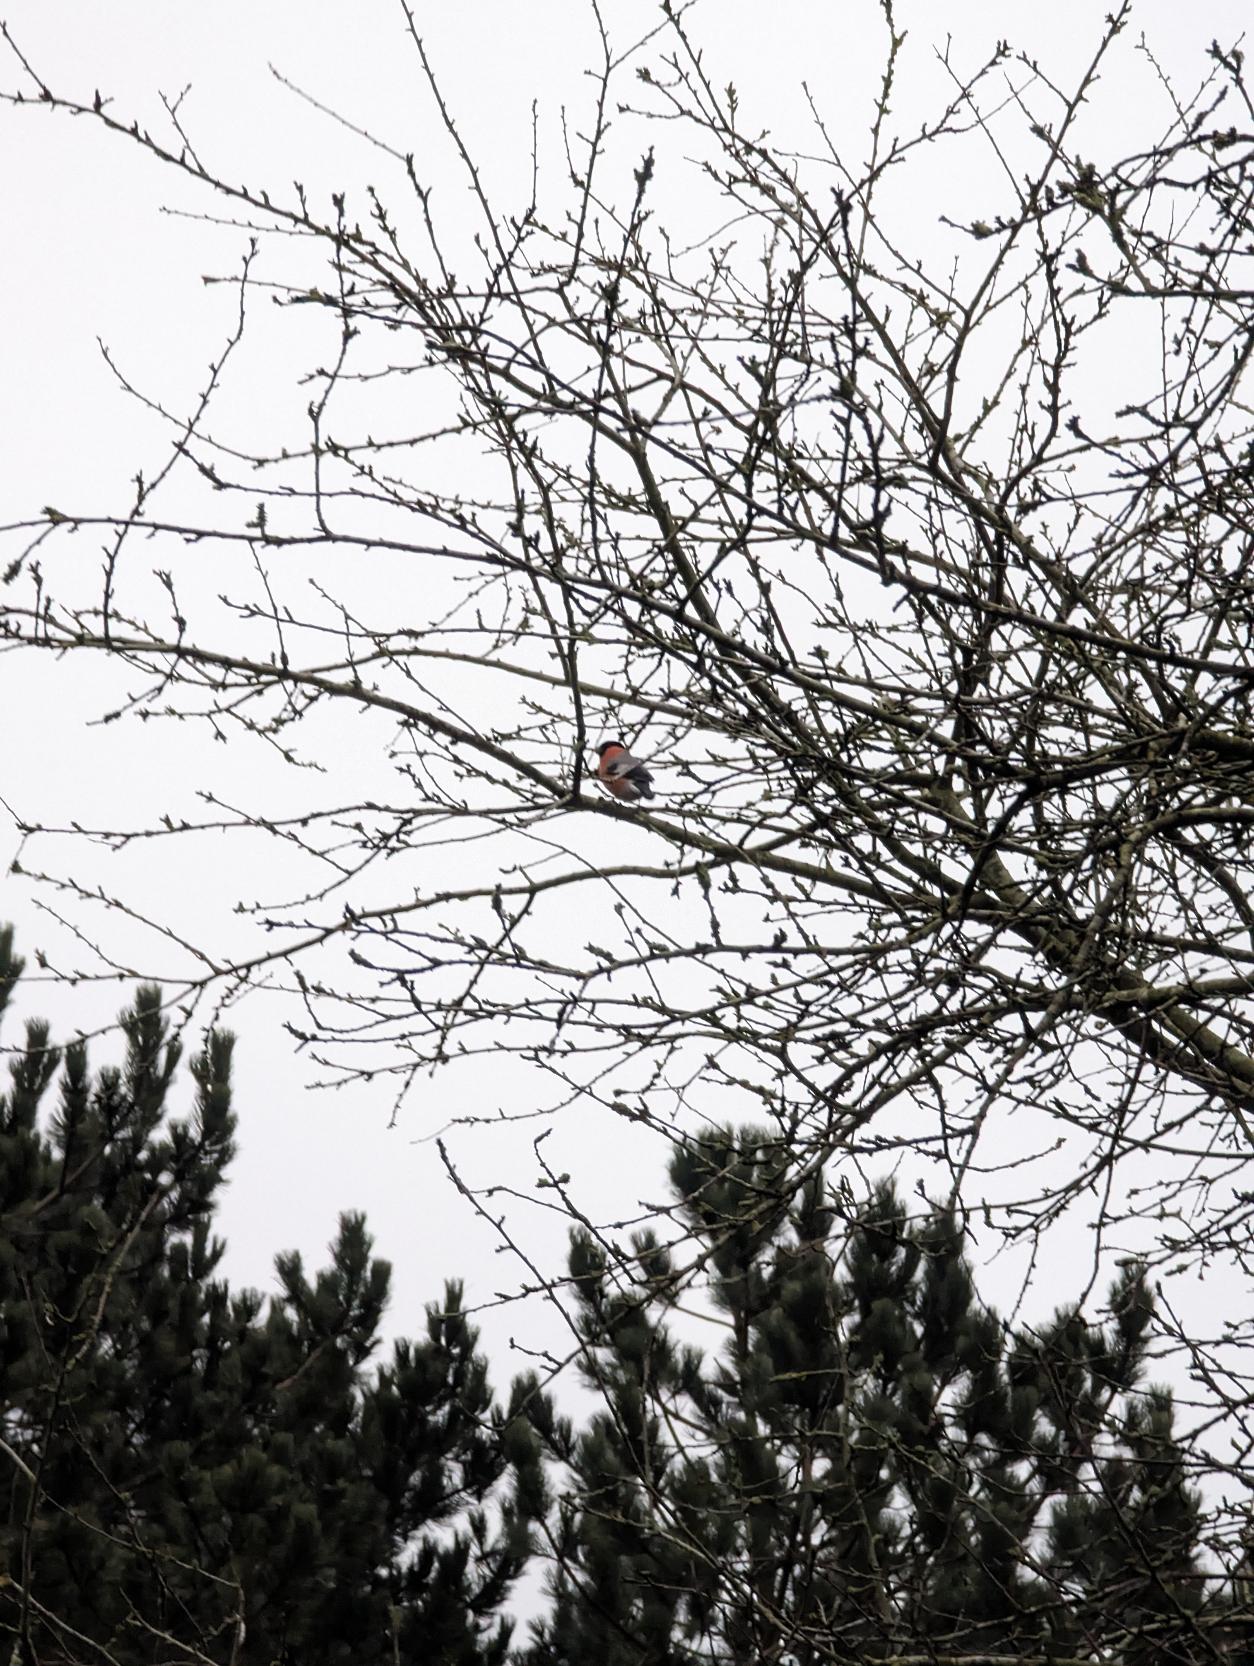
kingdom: Animalia
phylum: Chordata
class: Aves
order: Passeriformes
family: Fringillidae
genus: Pyrrhula
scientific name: Pyrrhula pyrrhula
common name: Dompap
